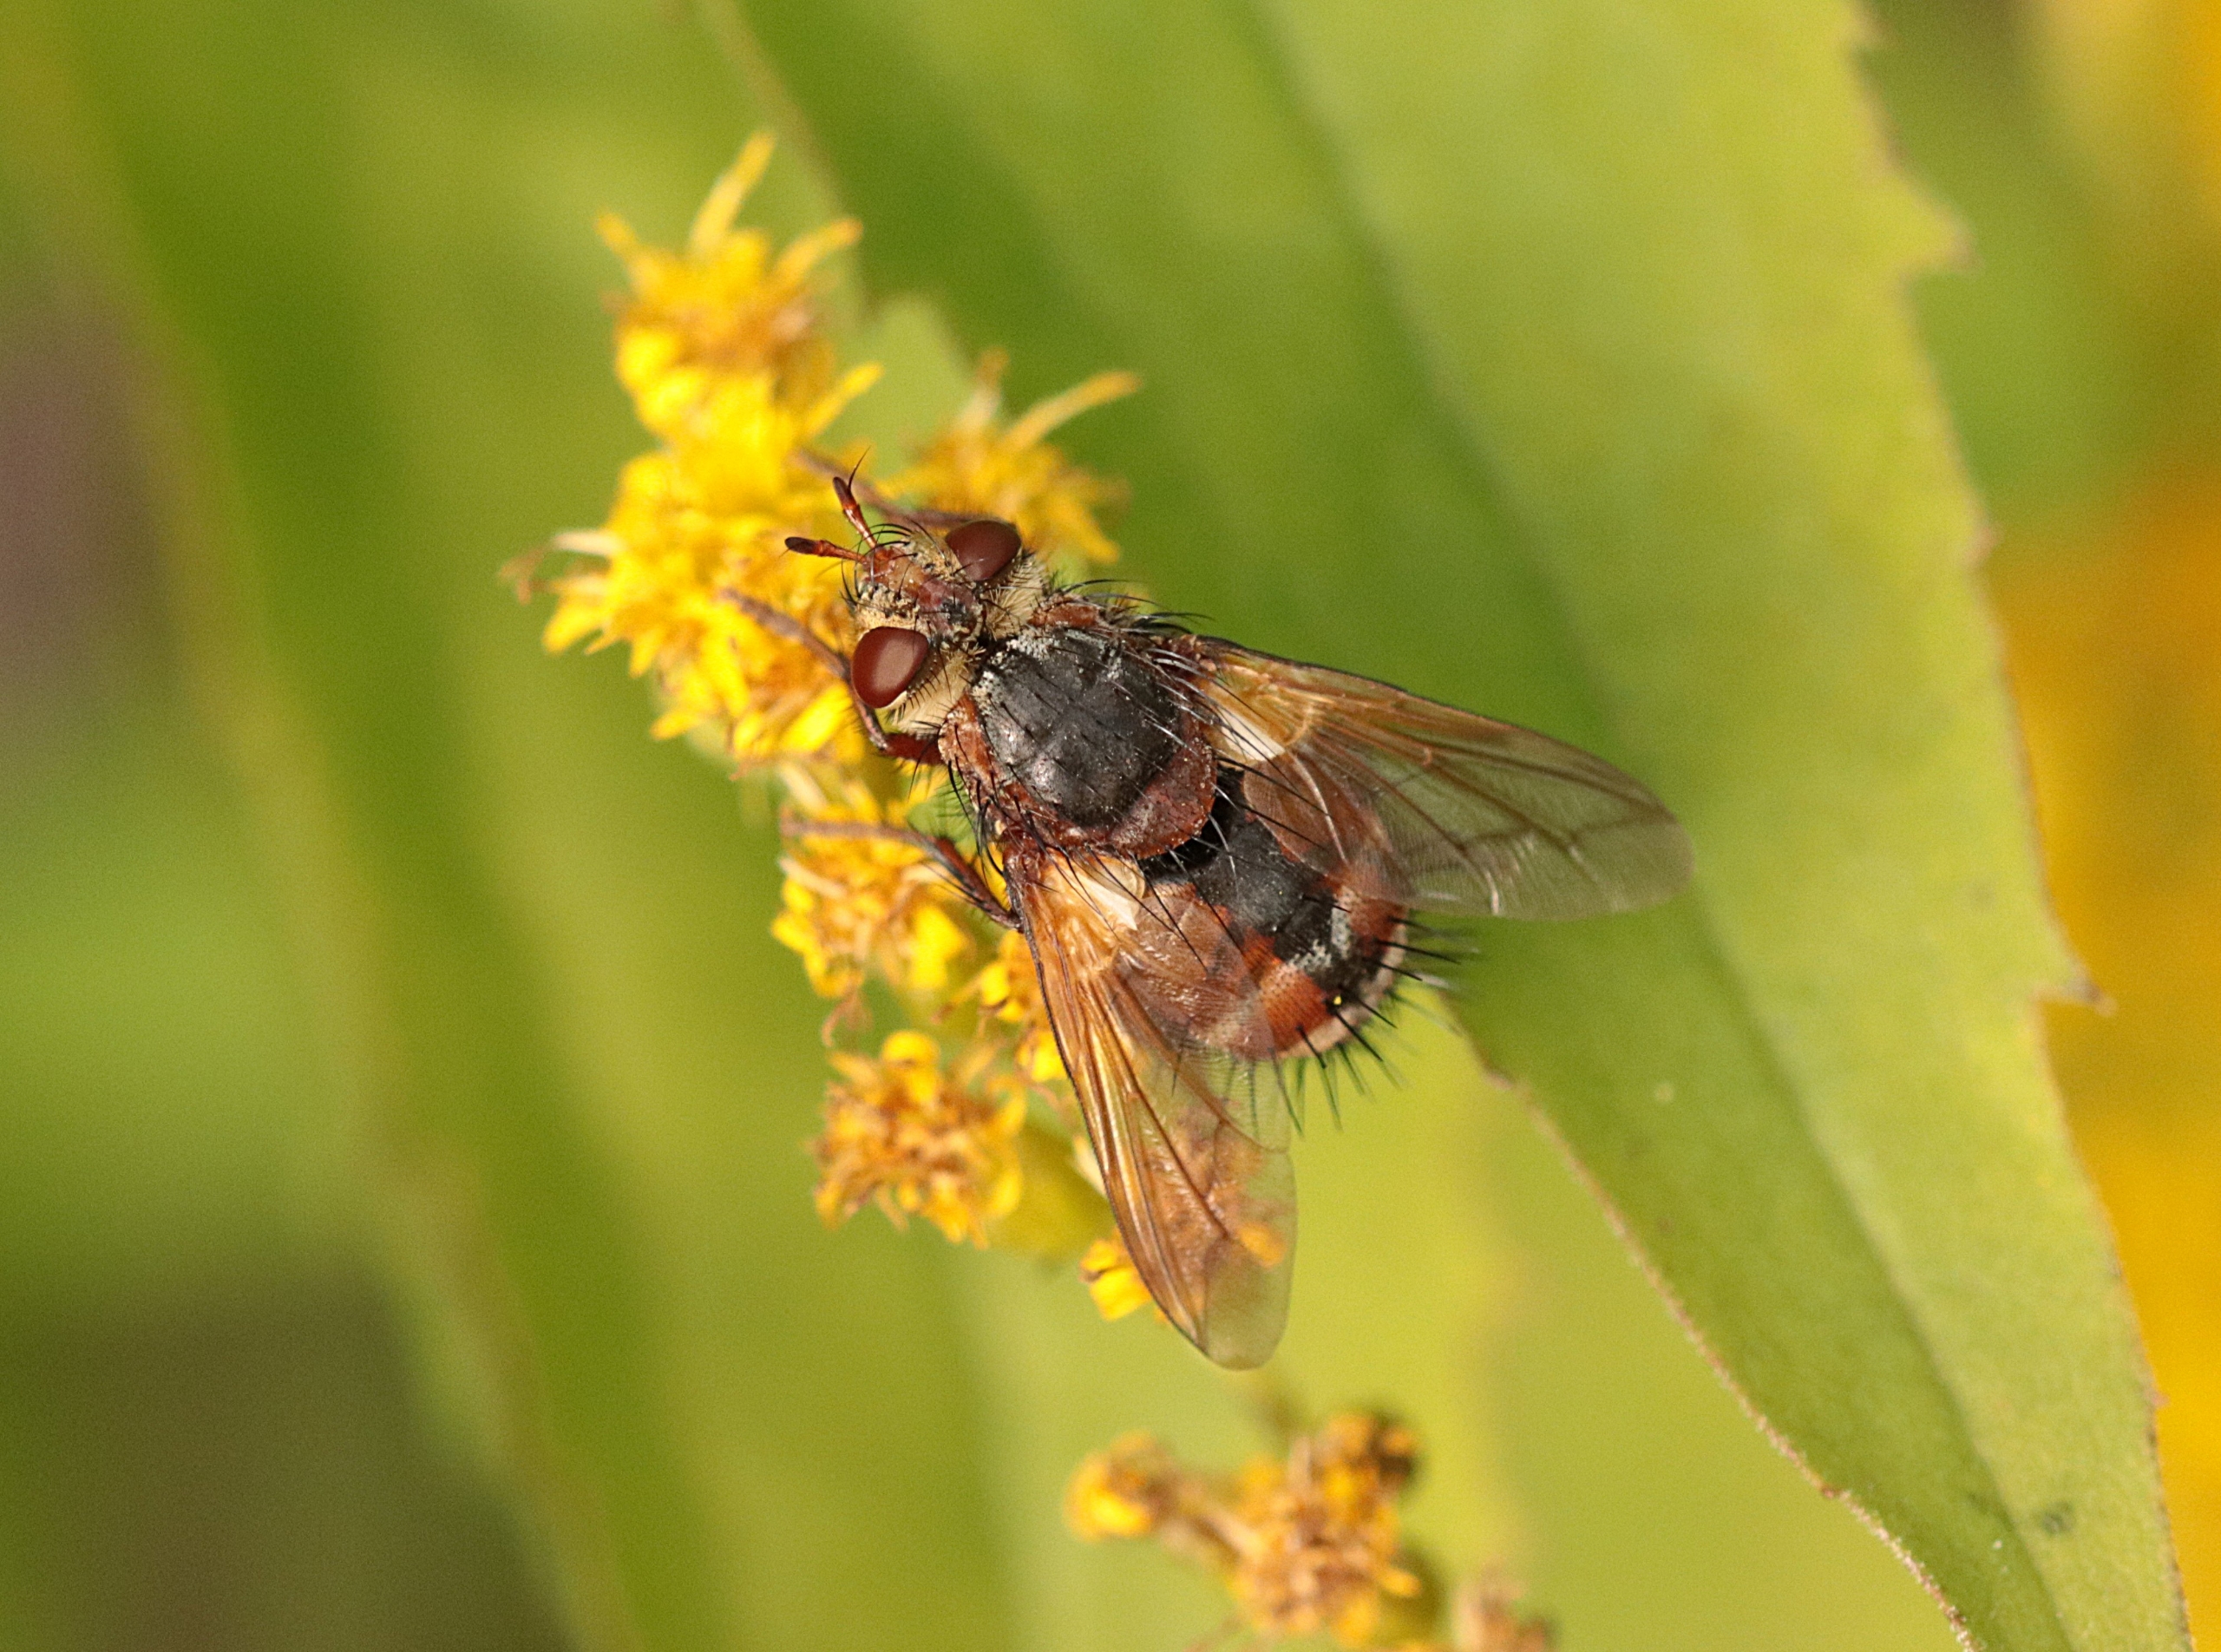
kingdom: Animalia
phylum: Arthropoda
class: Insecta
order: Diptera
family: Tachinidae
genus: Tachina
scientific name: Tachina fera
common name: Mellemfluen oskar
